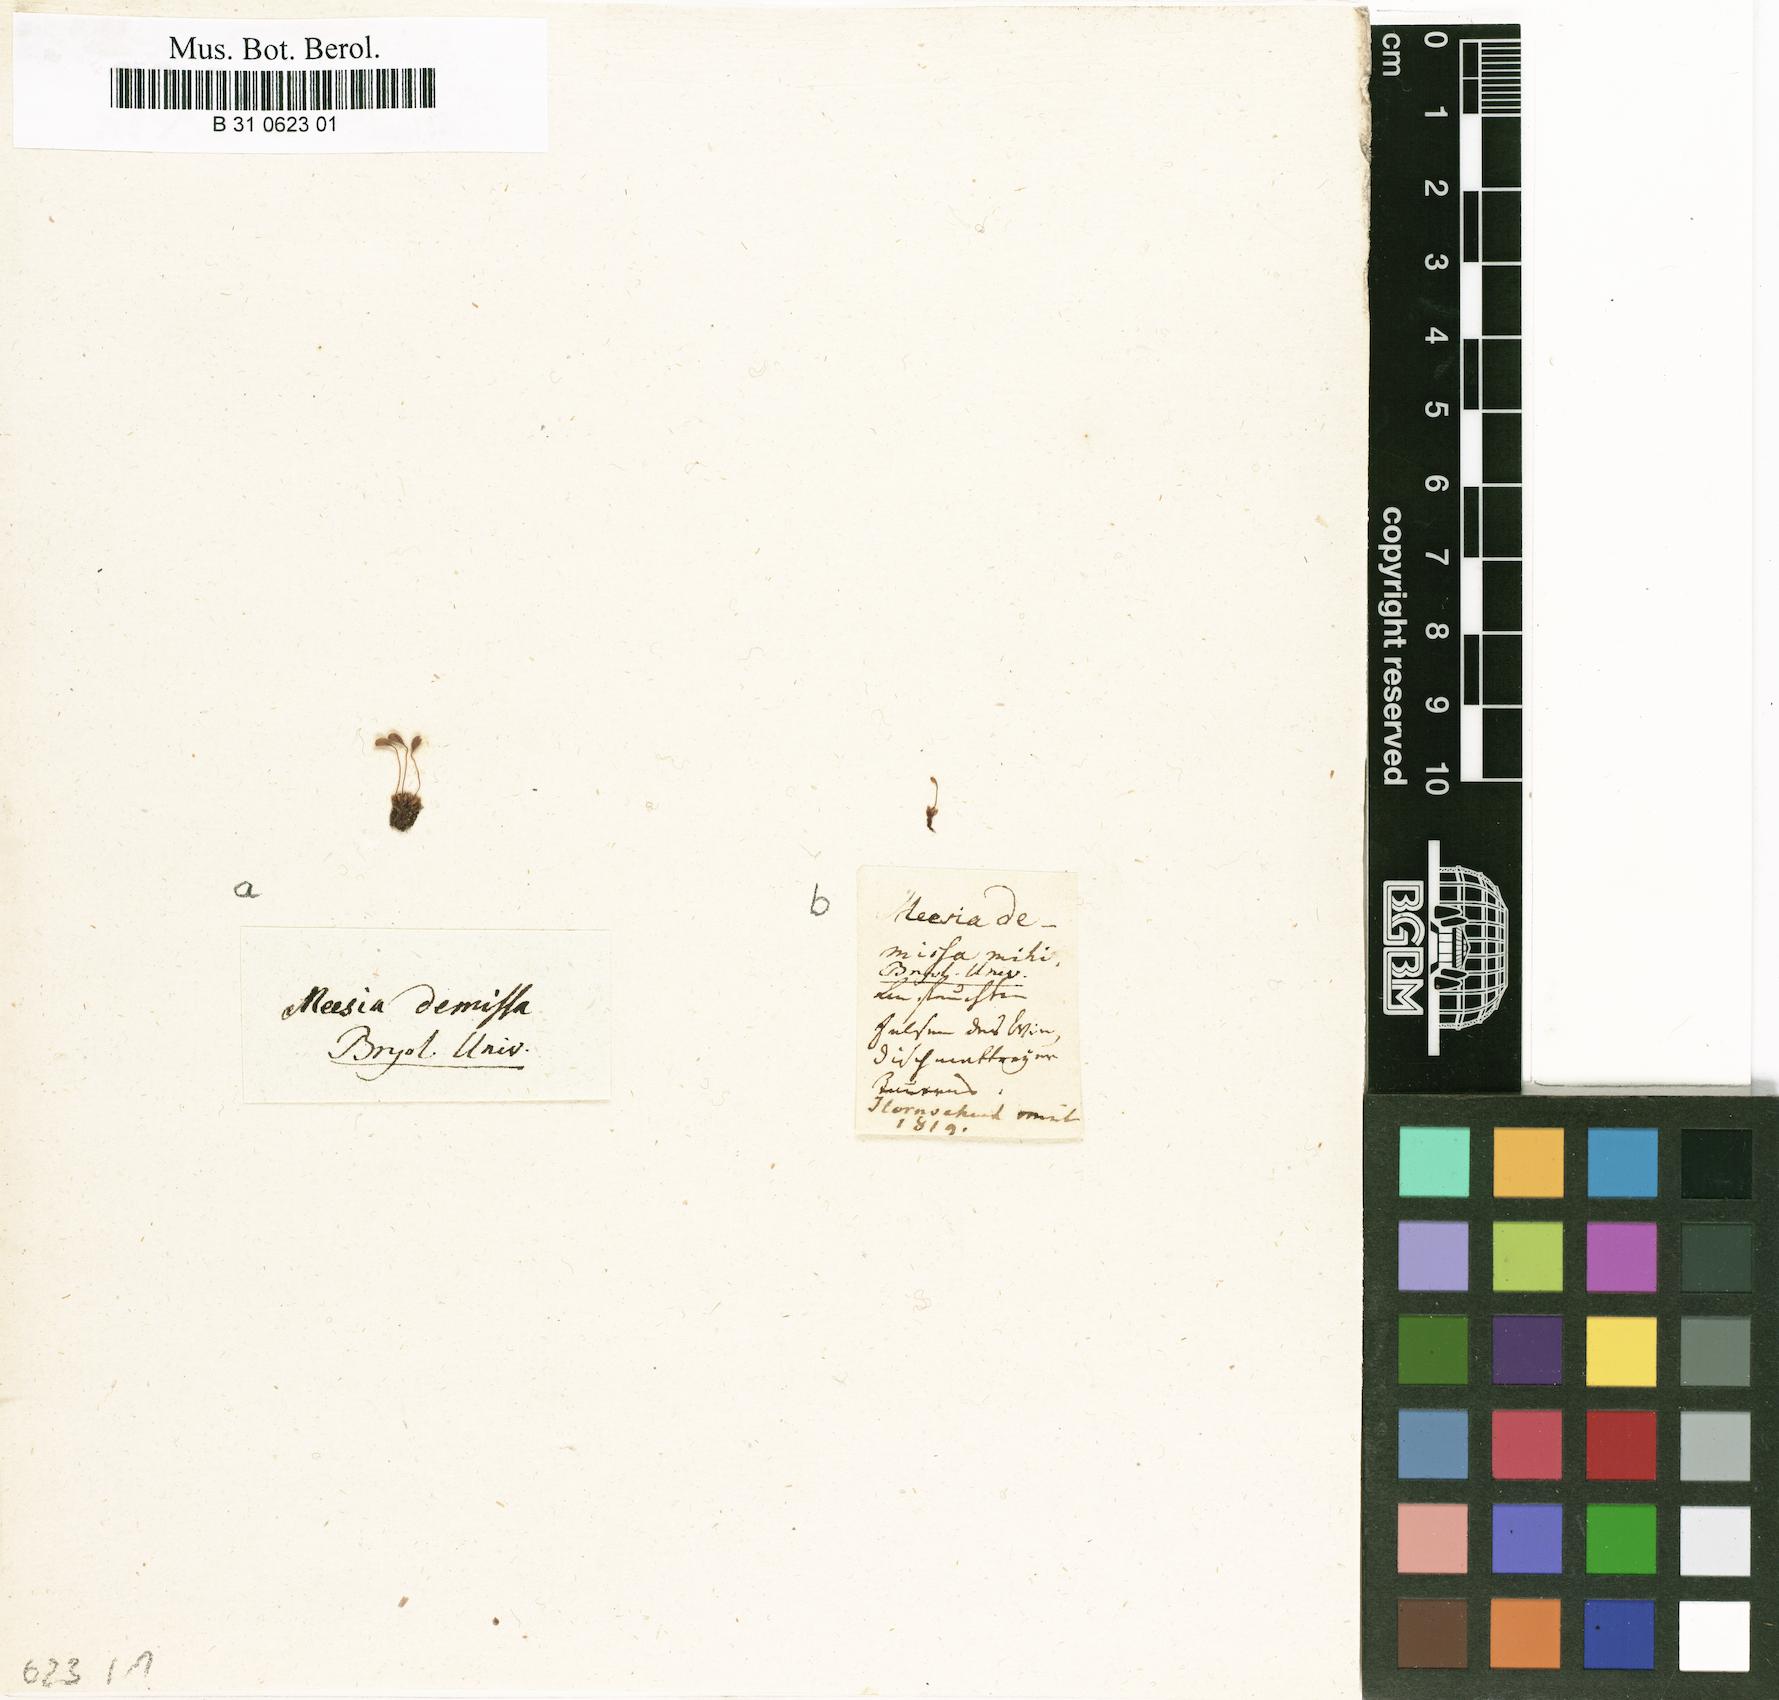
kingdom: Plantae
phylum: Bryophyta
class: Bryopsida
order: Bryales
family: Bryaceae
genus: Plagiobryum
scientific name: Plagiobryum demissum
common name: Drooping hump moss
